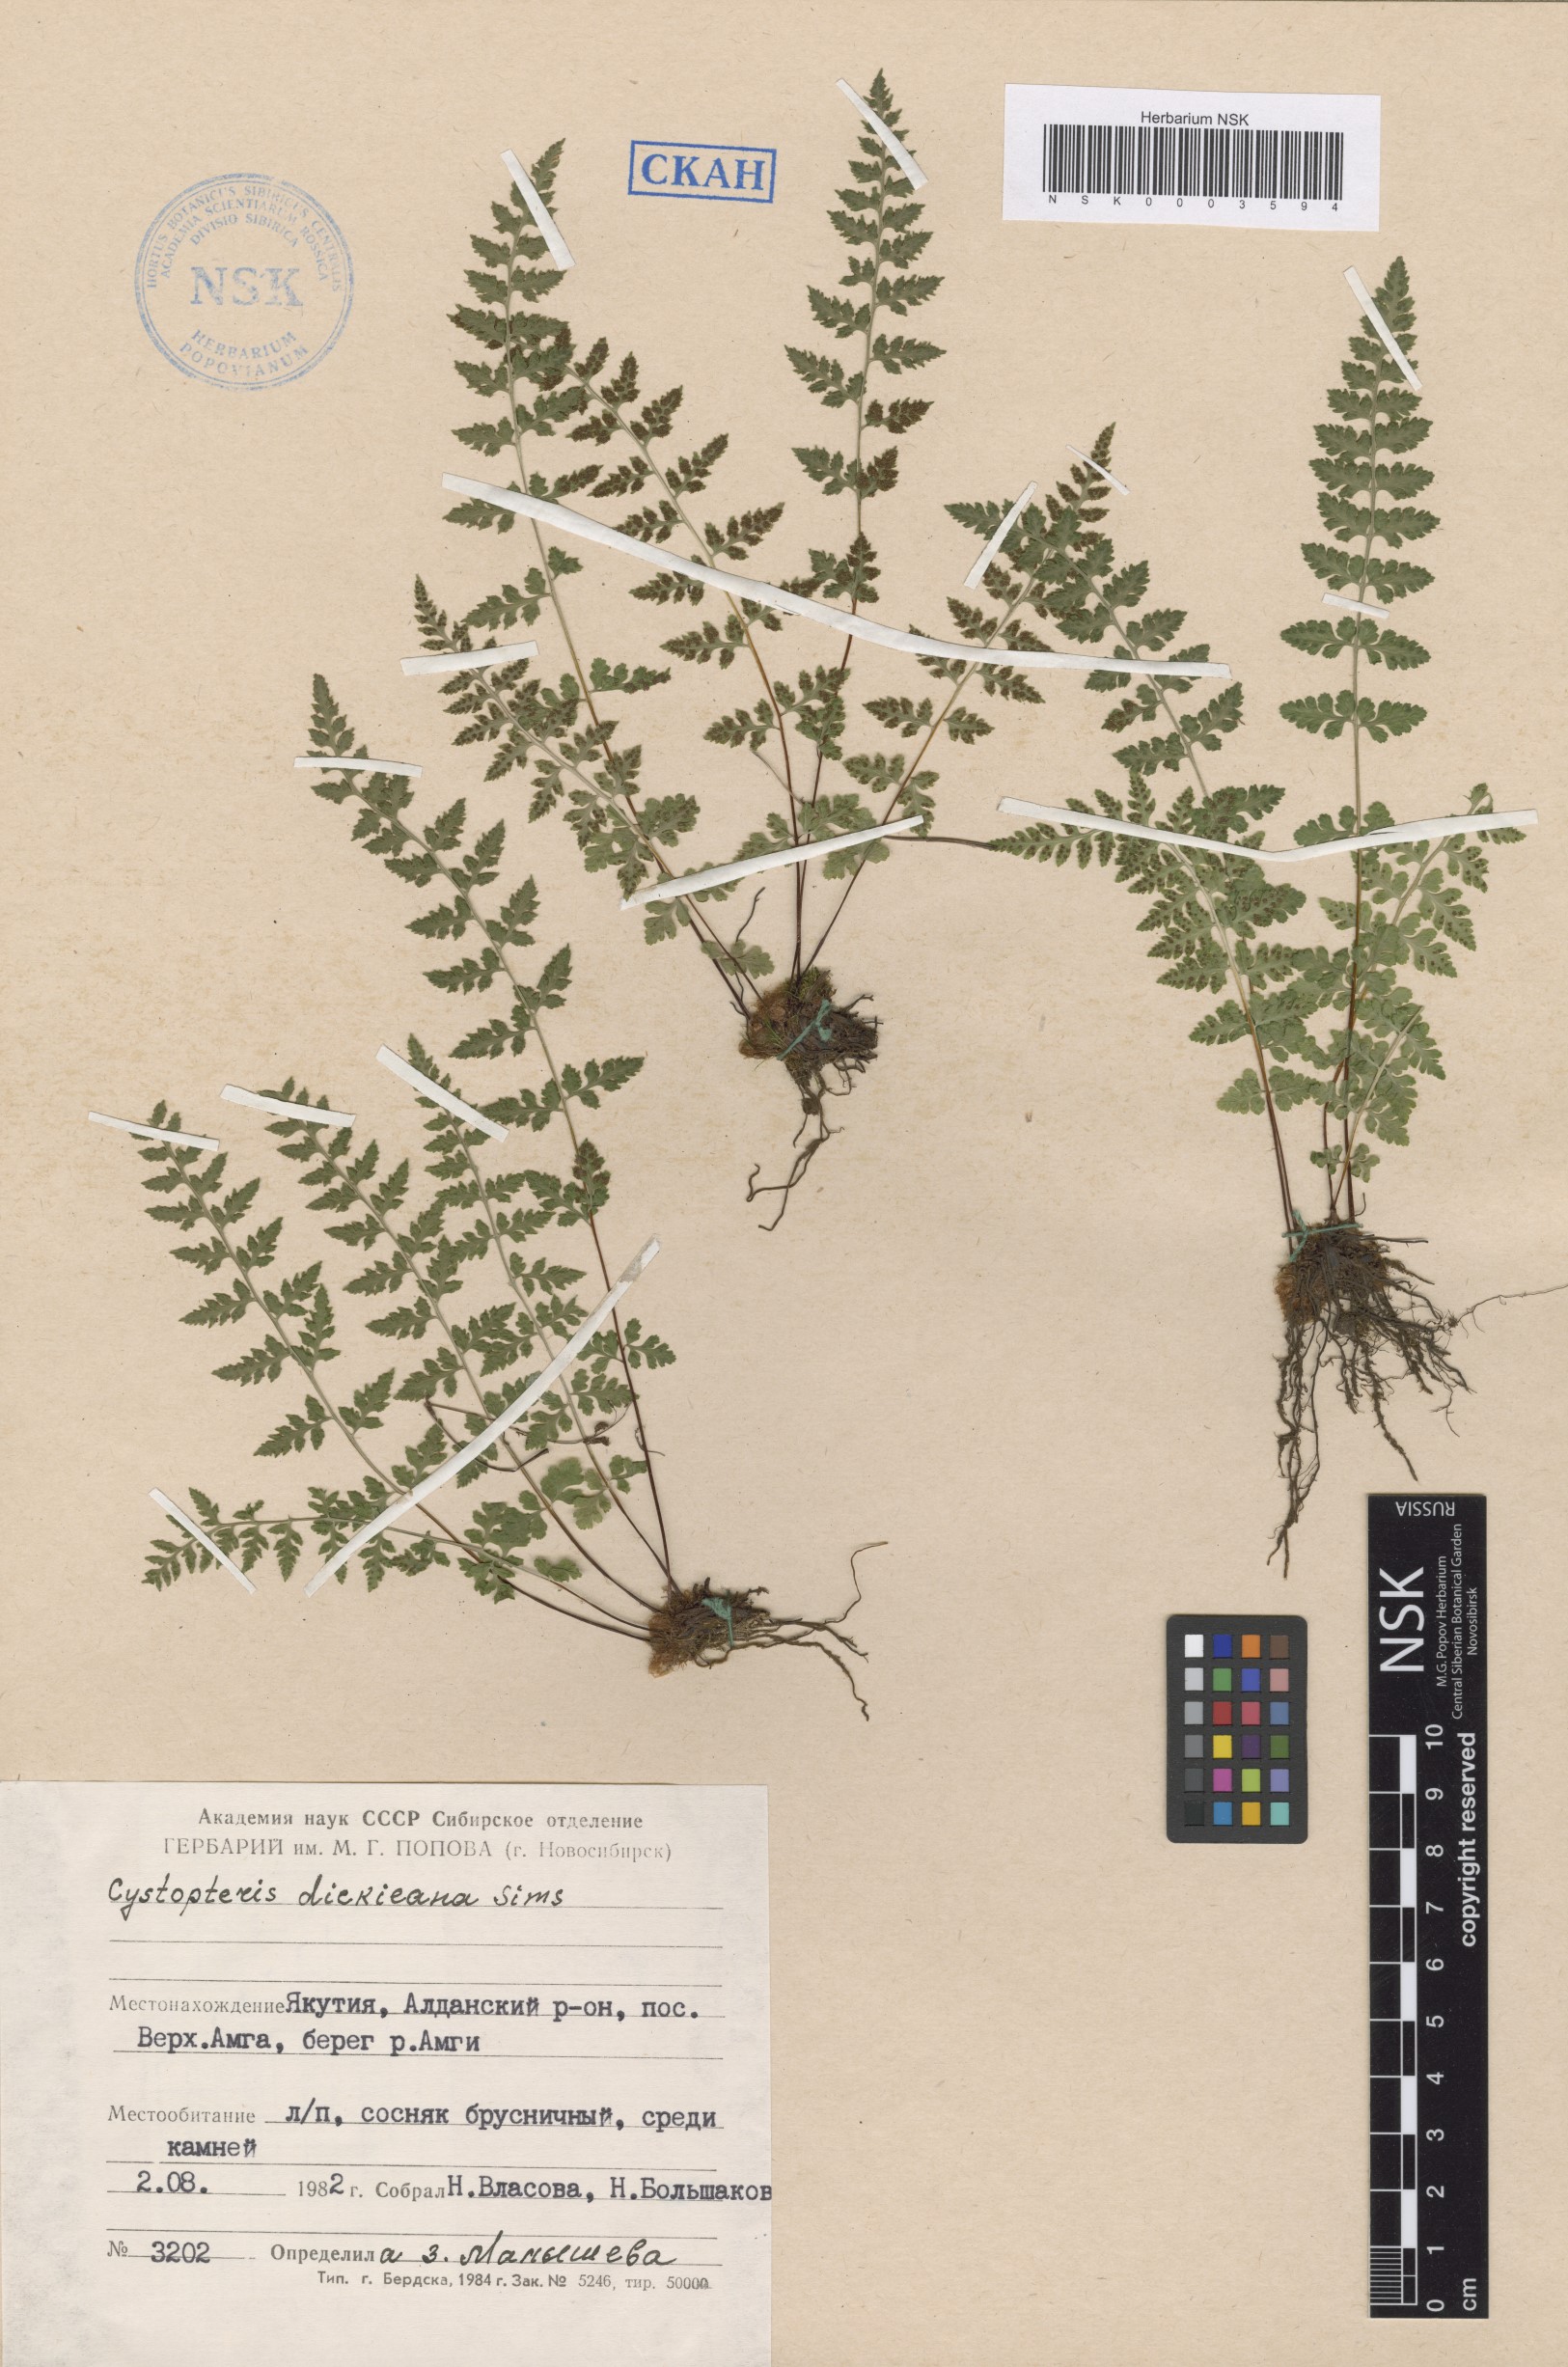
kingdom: Plantae
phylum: Tracheophyta
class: Polypodiopsida
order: Polypodiales
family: Cystopteridaceae
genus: Cystopteris
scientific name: Cystopteris dickieana
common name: Dickie's bladder-fern
